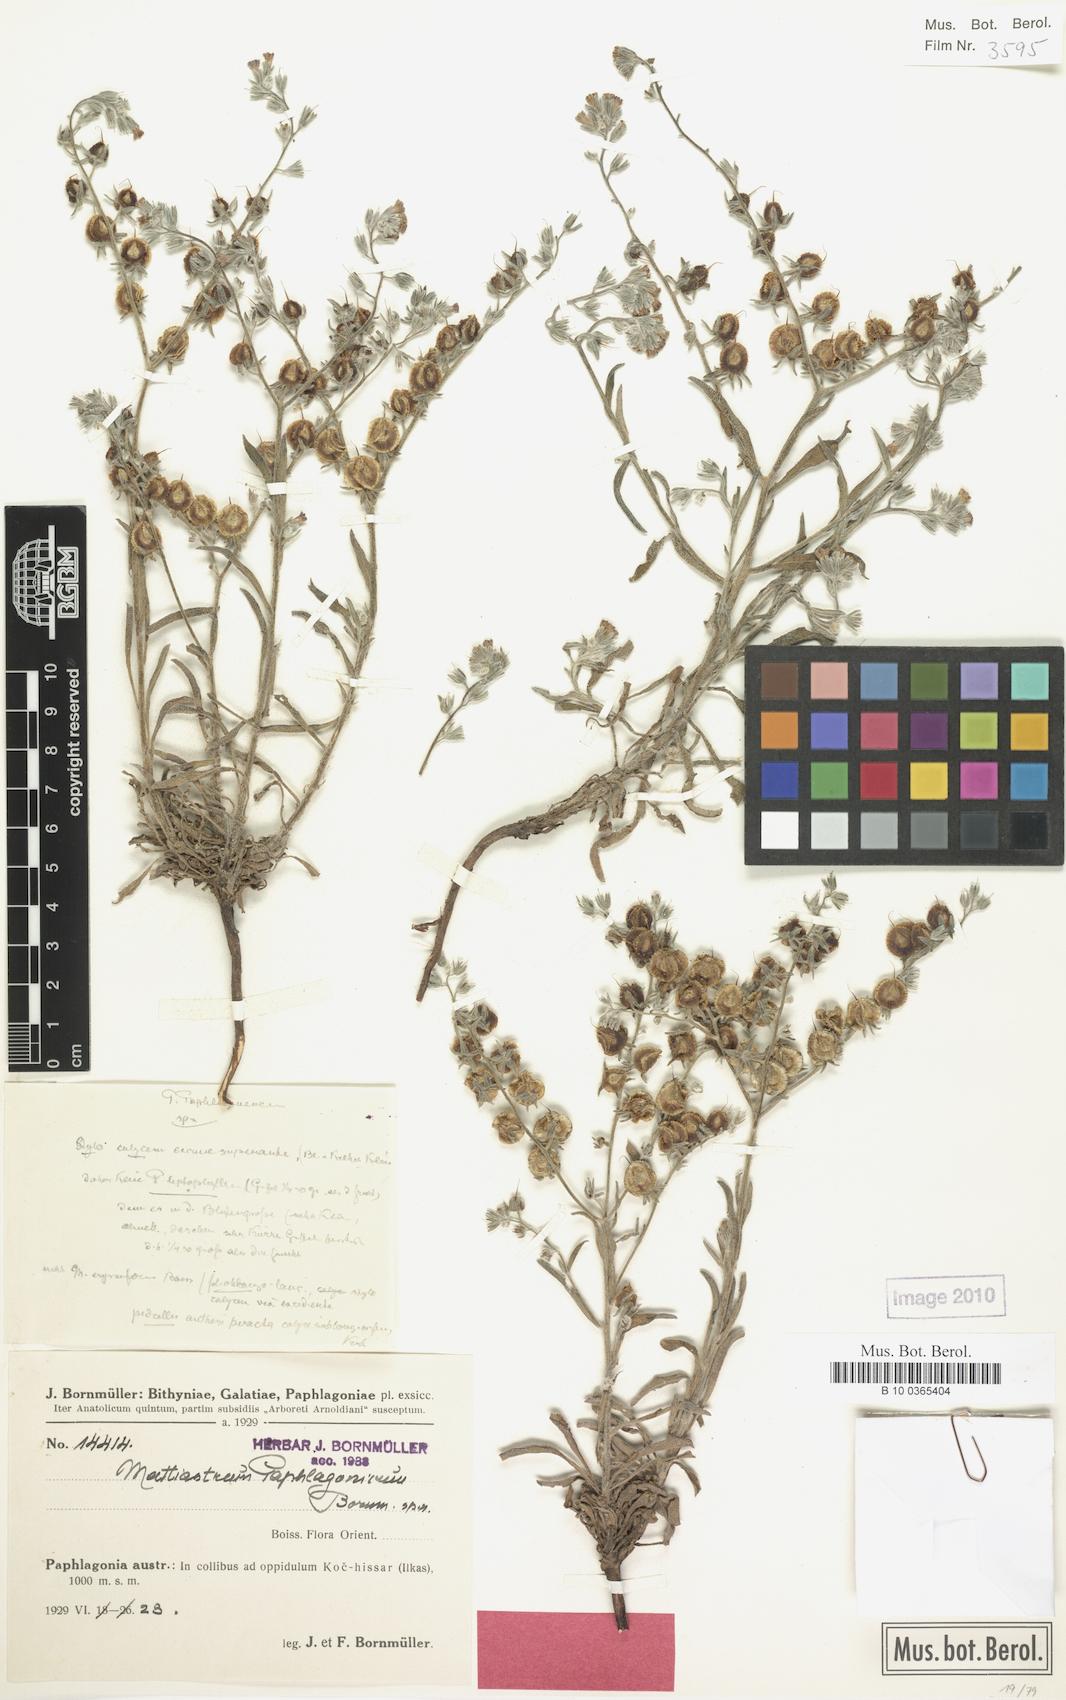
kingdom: Plantae
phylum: Tracheophyta
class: Magnoliopsida
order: Boraginales
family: Boraginaceae
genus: Paracaryum
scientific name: Paracaryum paphlagonicum
